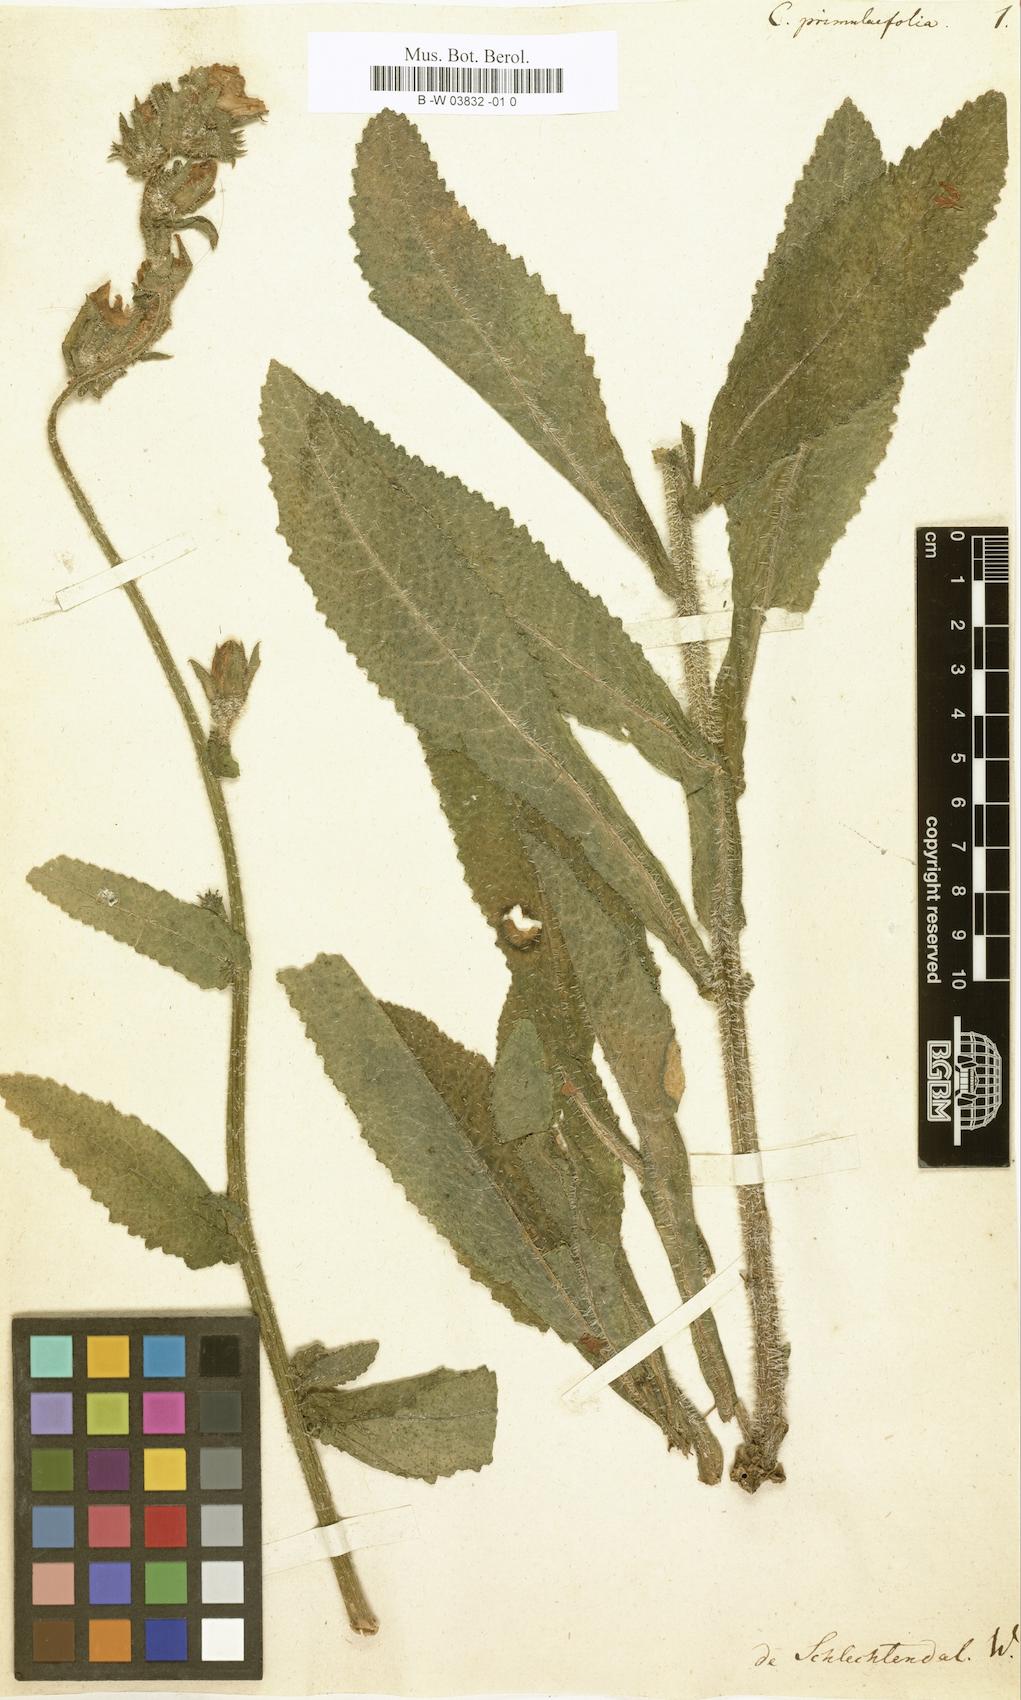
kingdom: Plantae
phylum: Tracheophyta
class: Magnoliopsida
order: Asterales
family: Campanulaceae
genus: Campanula
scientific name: Campanula primulifolia
